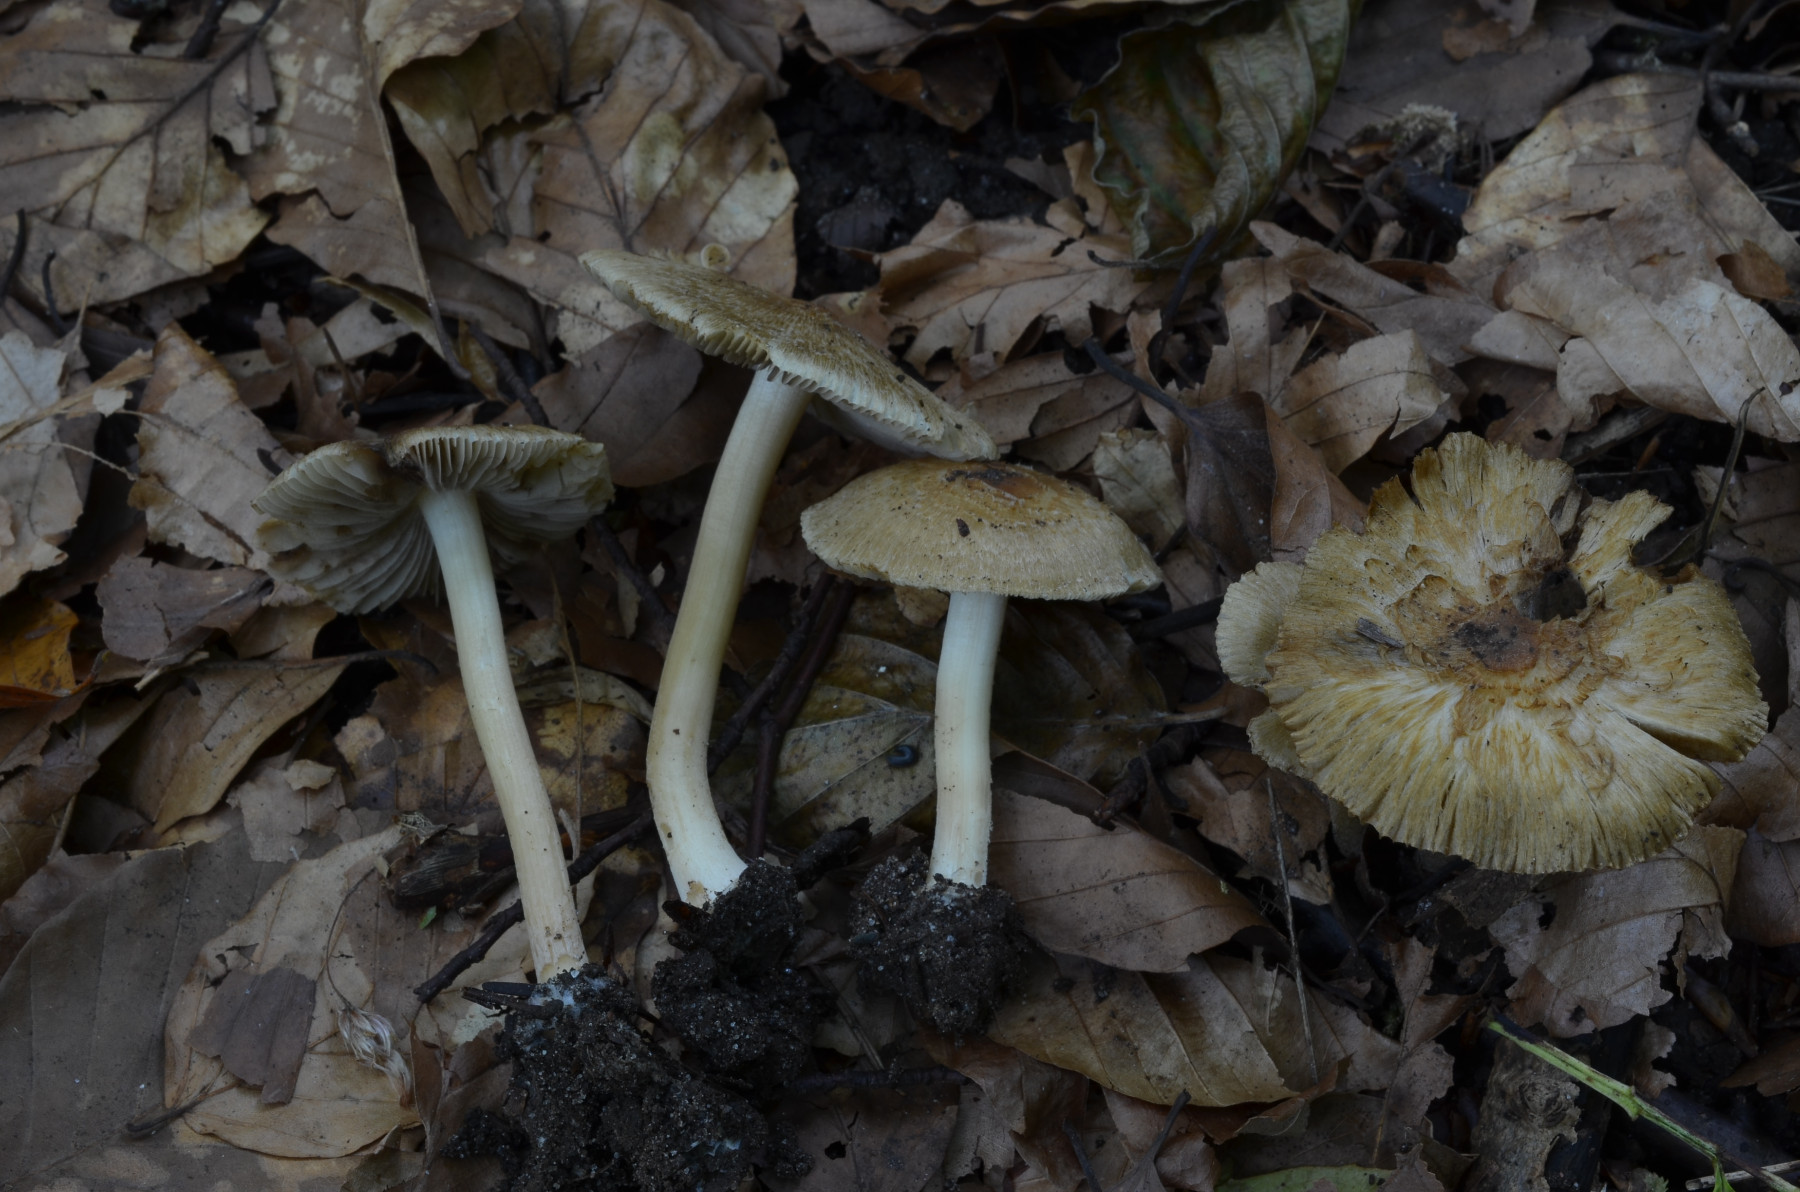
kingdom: Fungi
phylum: Basidiomycota
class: Agaricomycetes
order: Agaricales
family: Inocybaceae
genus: Inocybe
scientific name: Inocybe vaurasii
